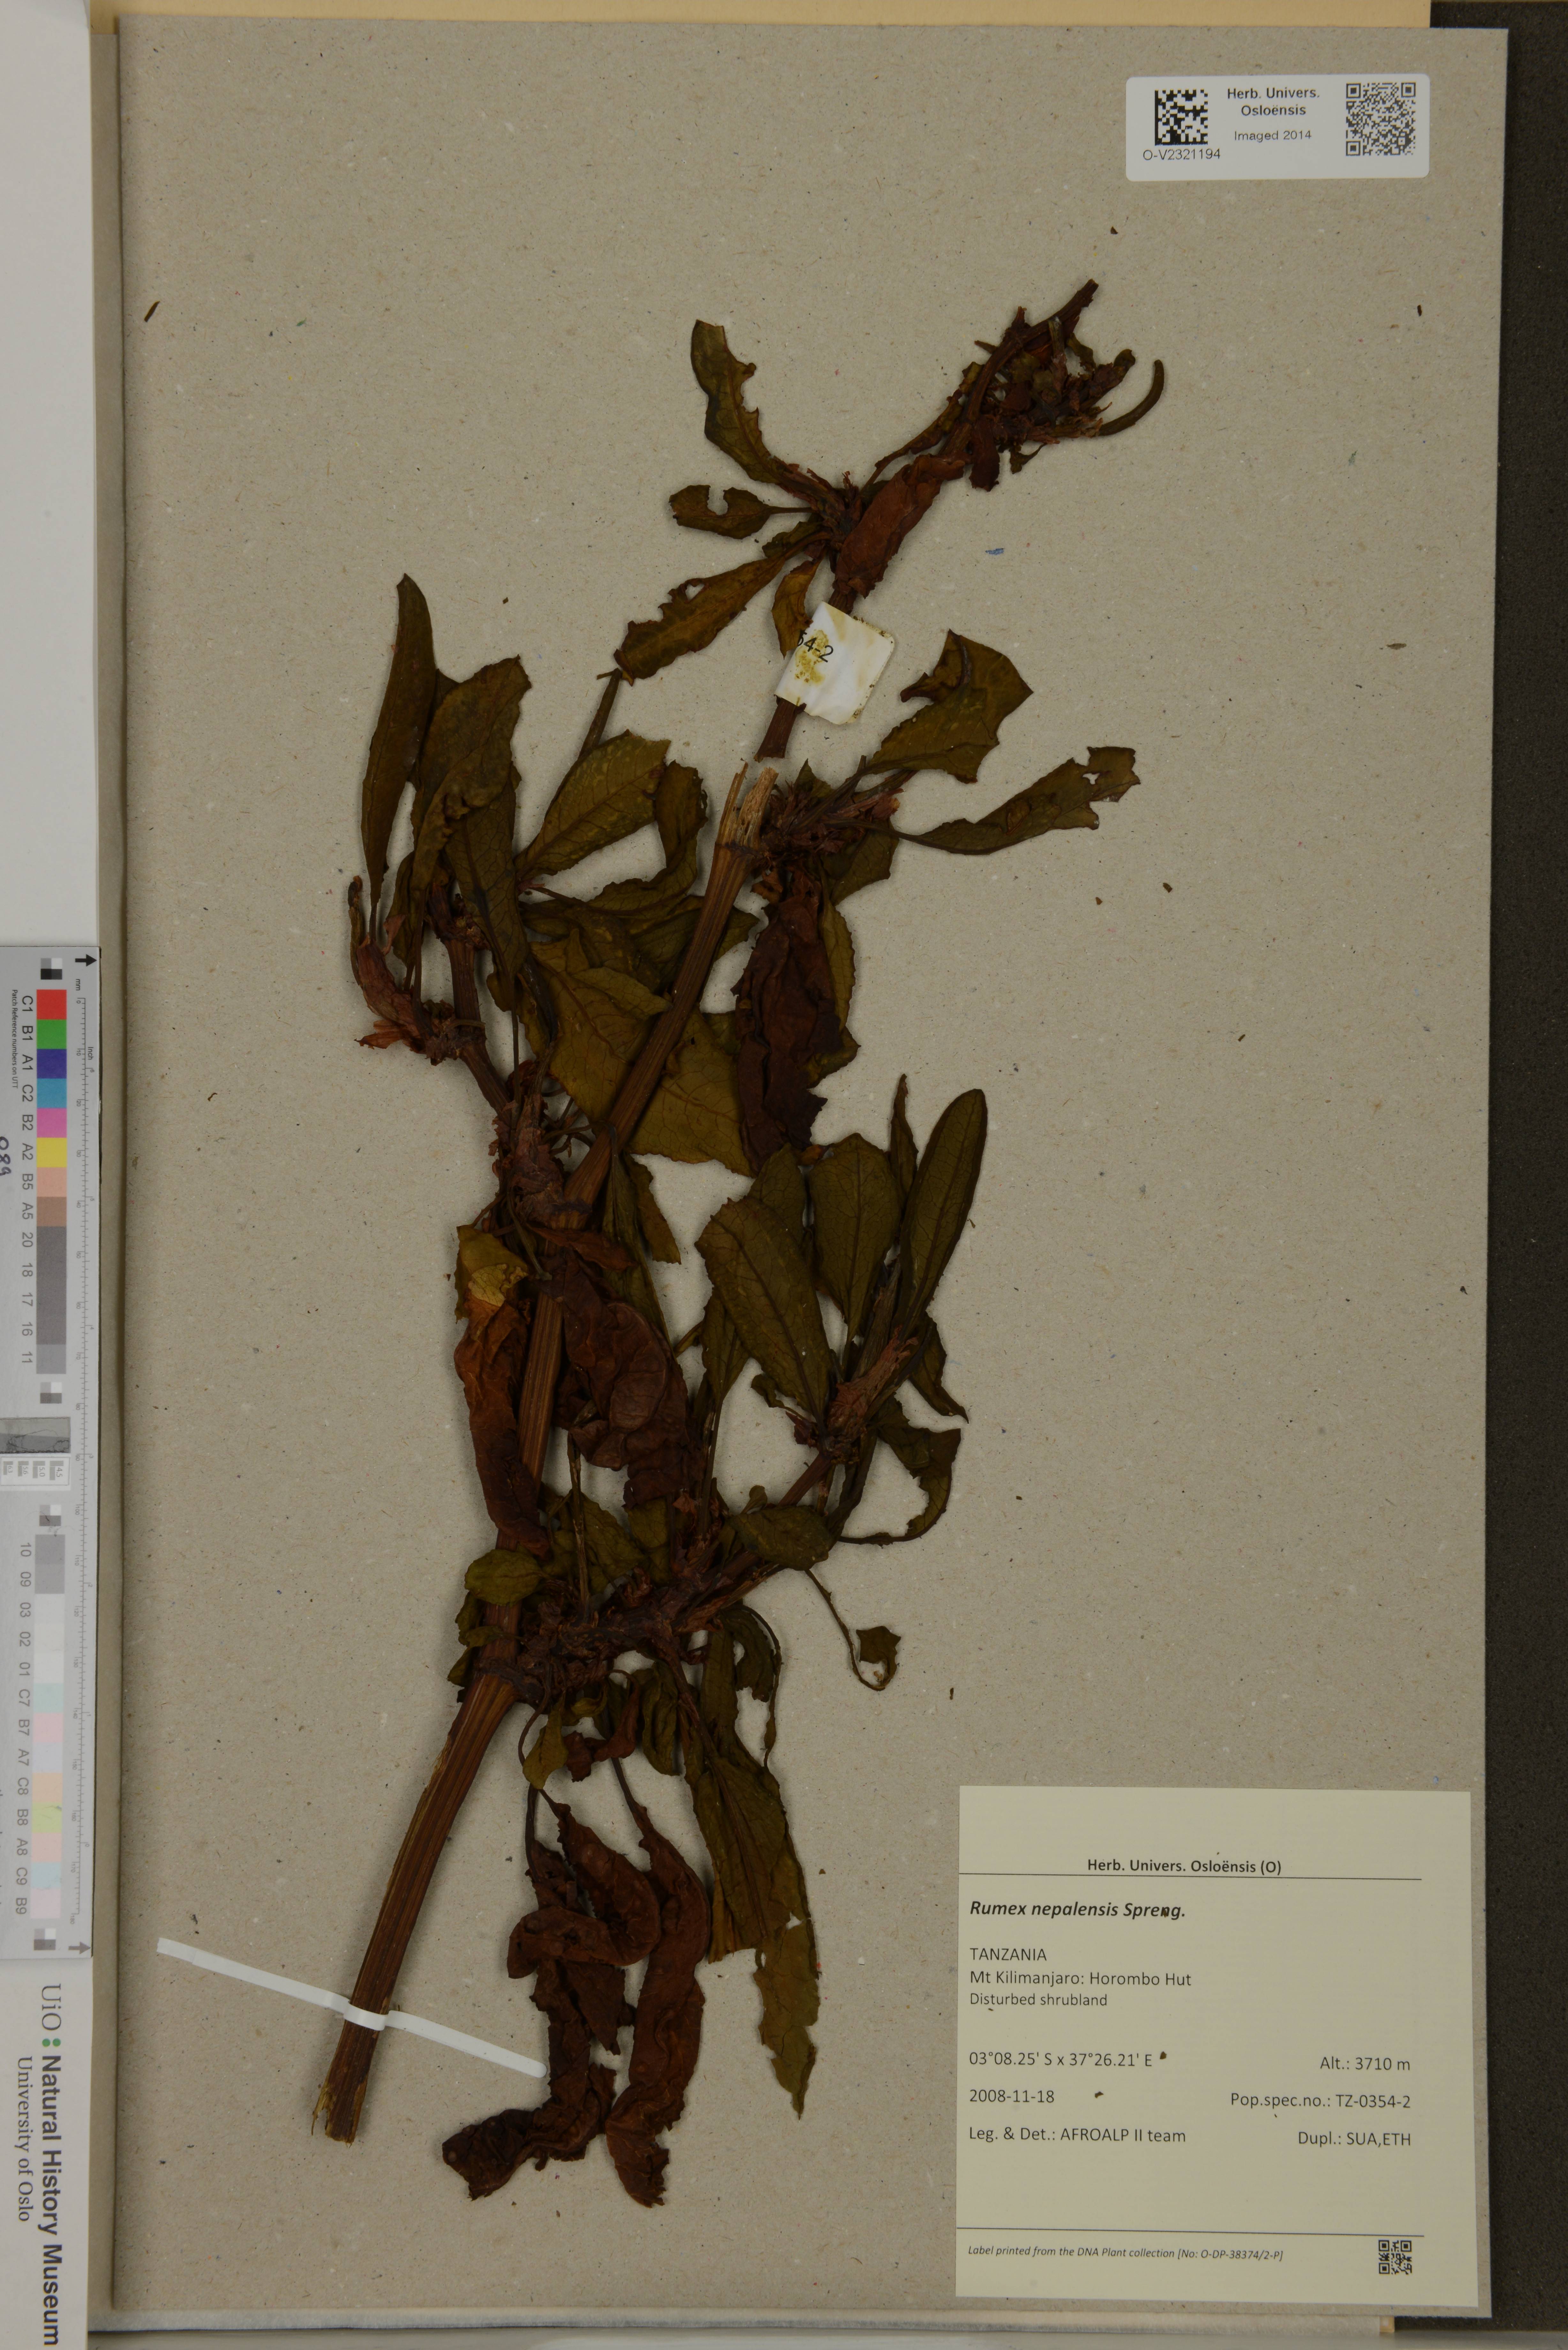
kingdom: Plantae
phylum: Tracheophyta
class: Magnoliopsida
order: Caryophyllales
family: Polygonaceae
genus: Rumex
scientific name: Rumex nepalensis
